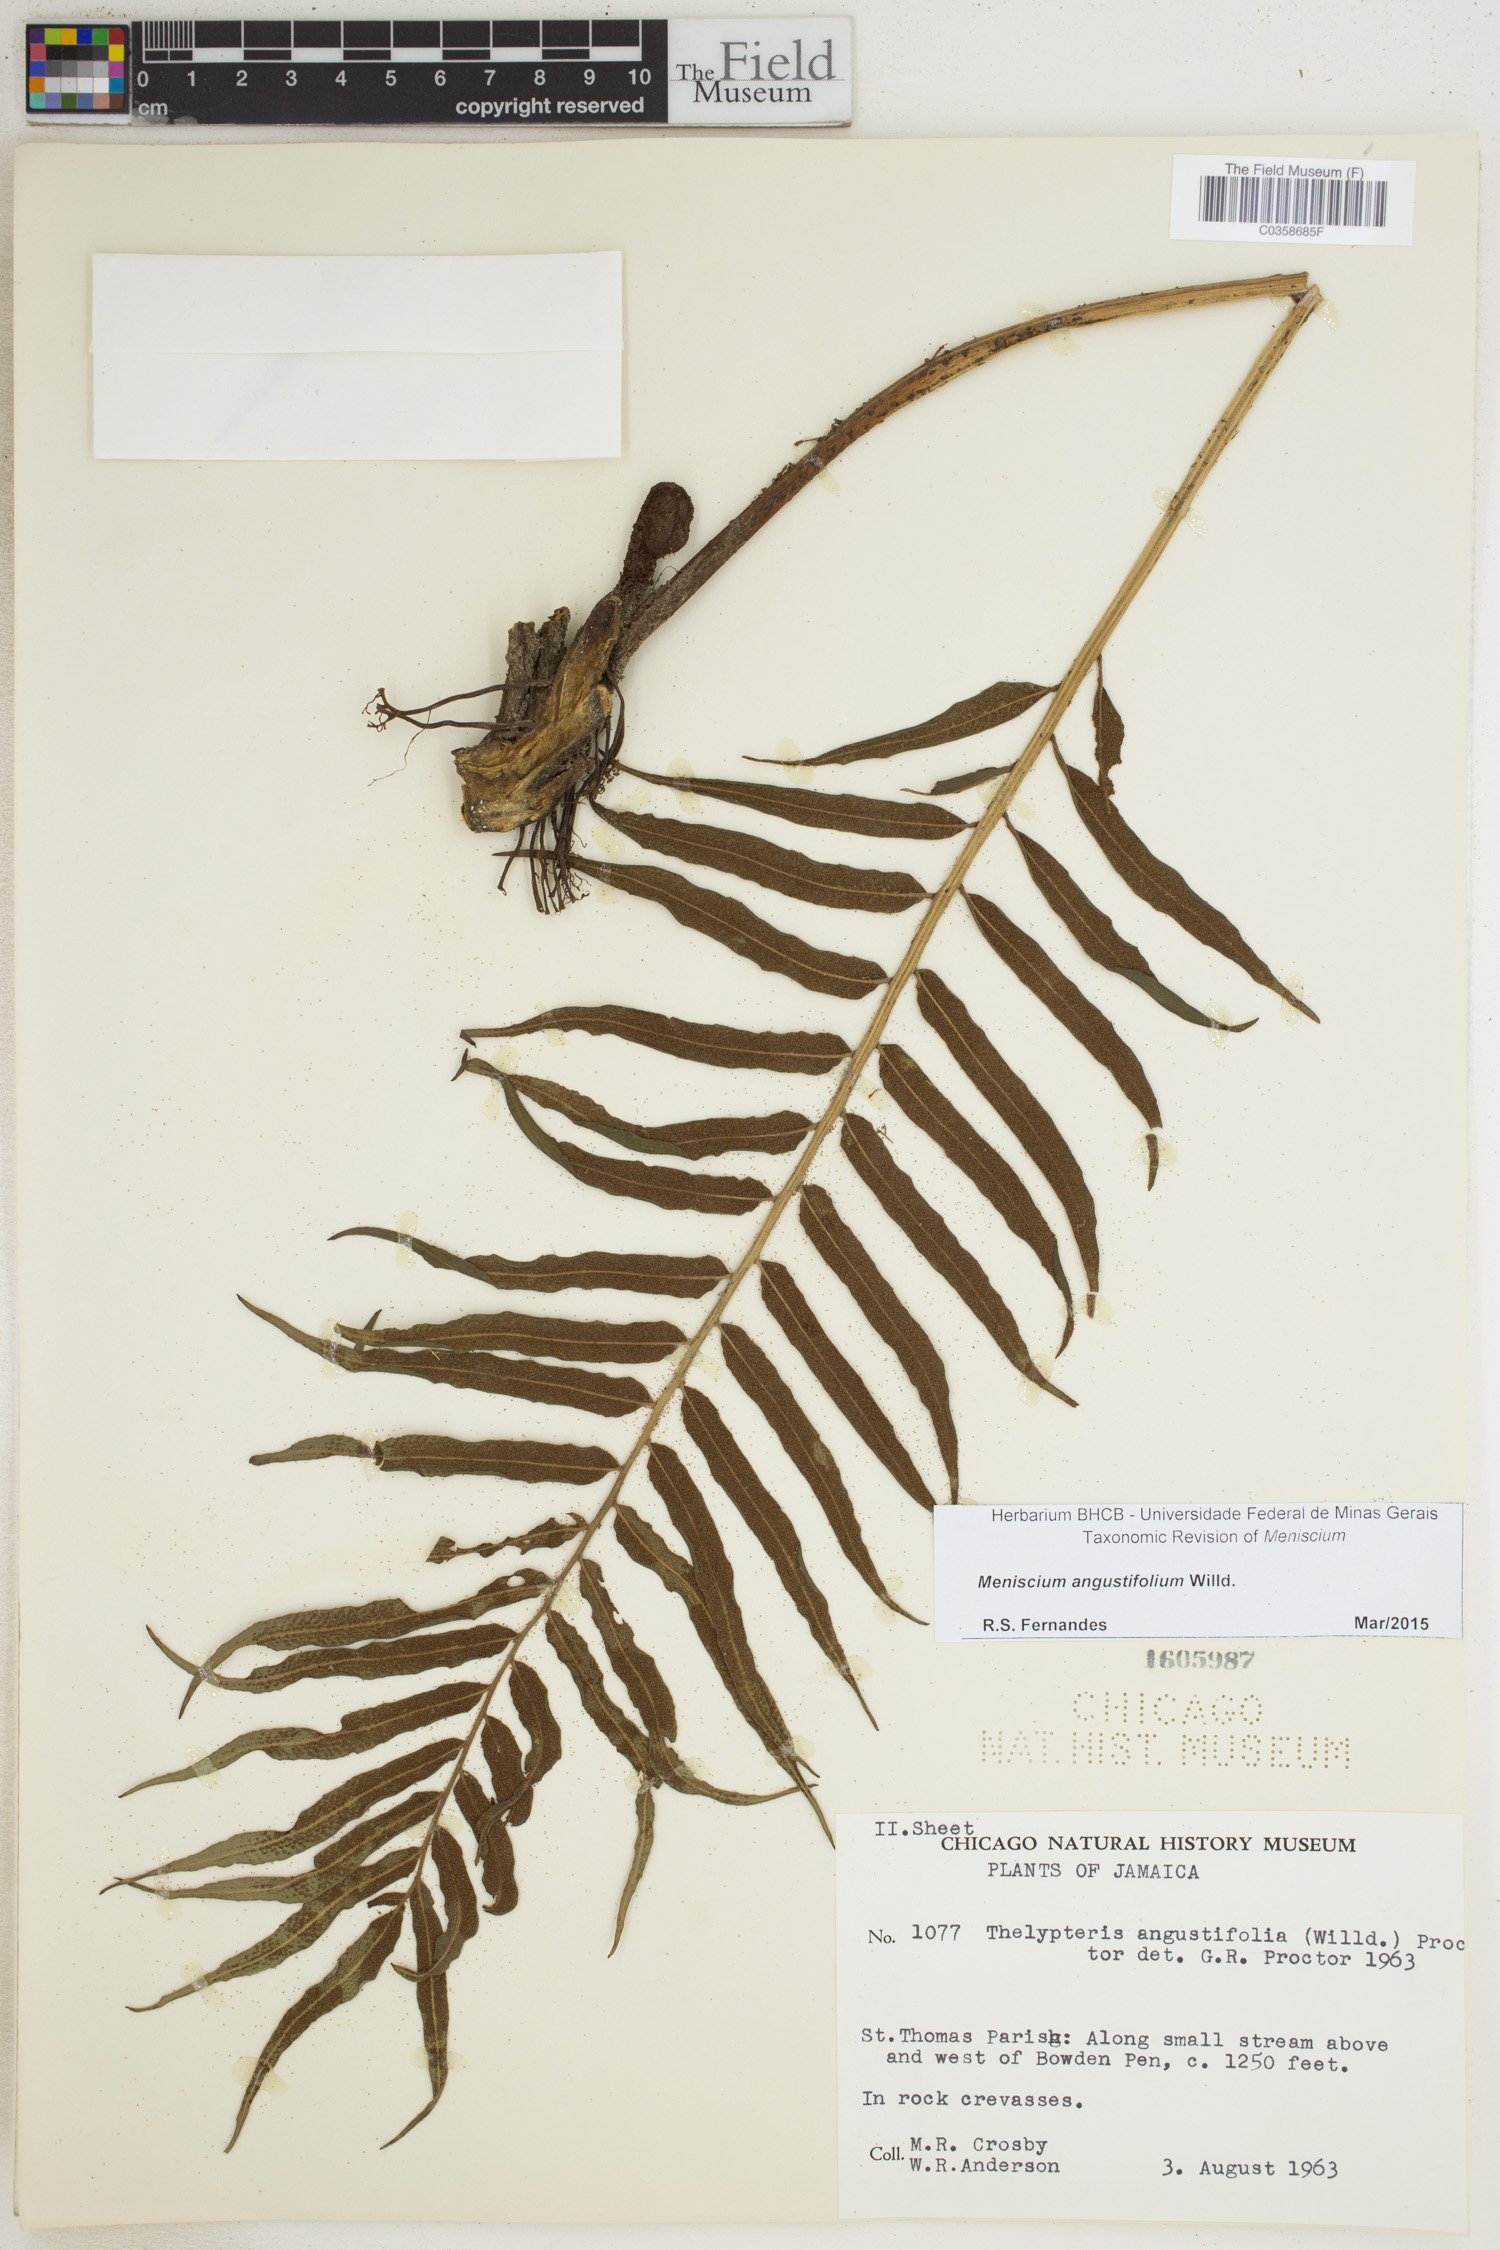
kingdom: Plantae
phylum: Tracheophyta
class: Polypodiopsida
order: Polypodiales
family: Thelypteridaceae
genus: Meniscium
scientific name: Meniscium angustifolium
